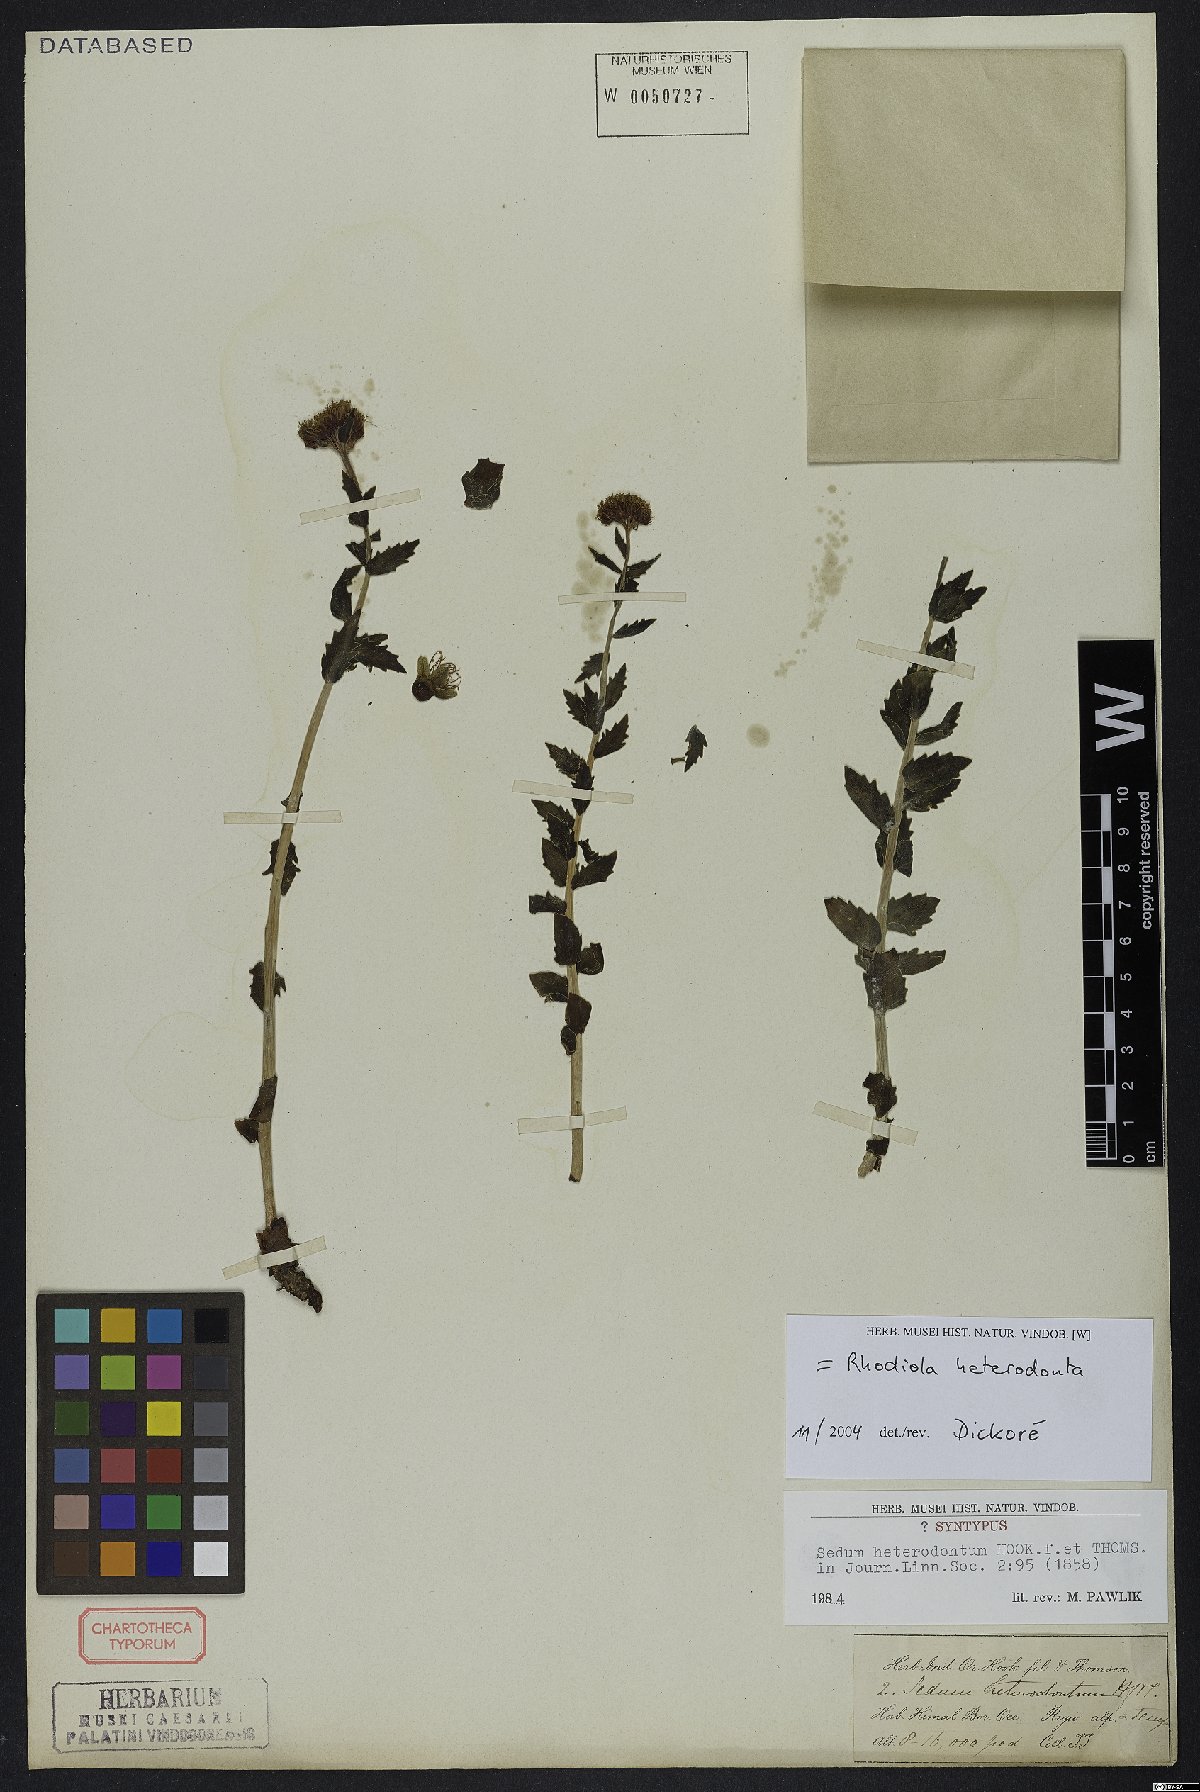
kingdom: Plantae
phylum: Tracheophyta
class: Magnoliopsida
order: Saxifragales
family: Crassulaceae
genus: Rhodiola
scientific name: Rhodiola heterodonta
